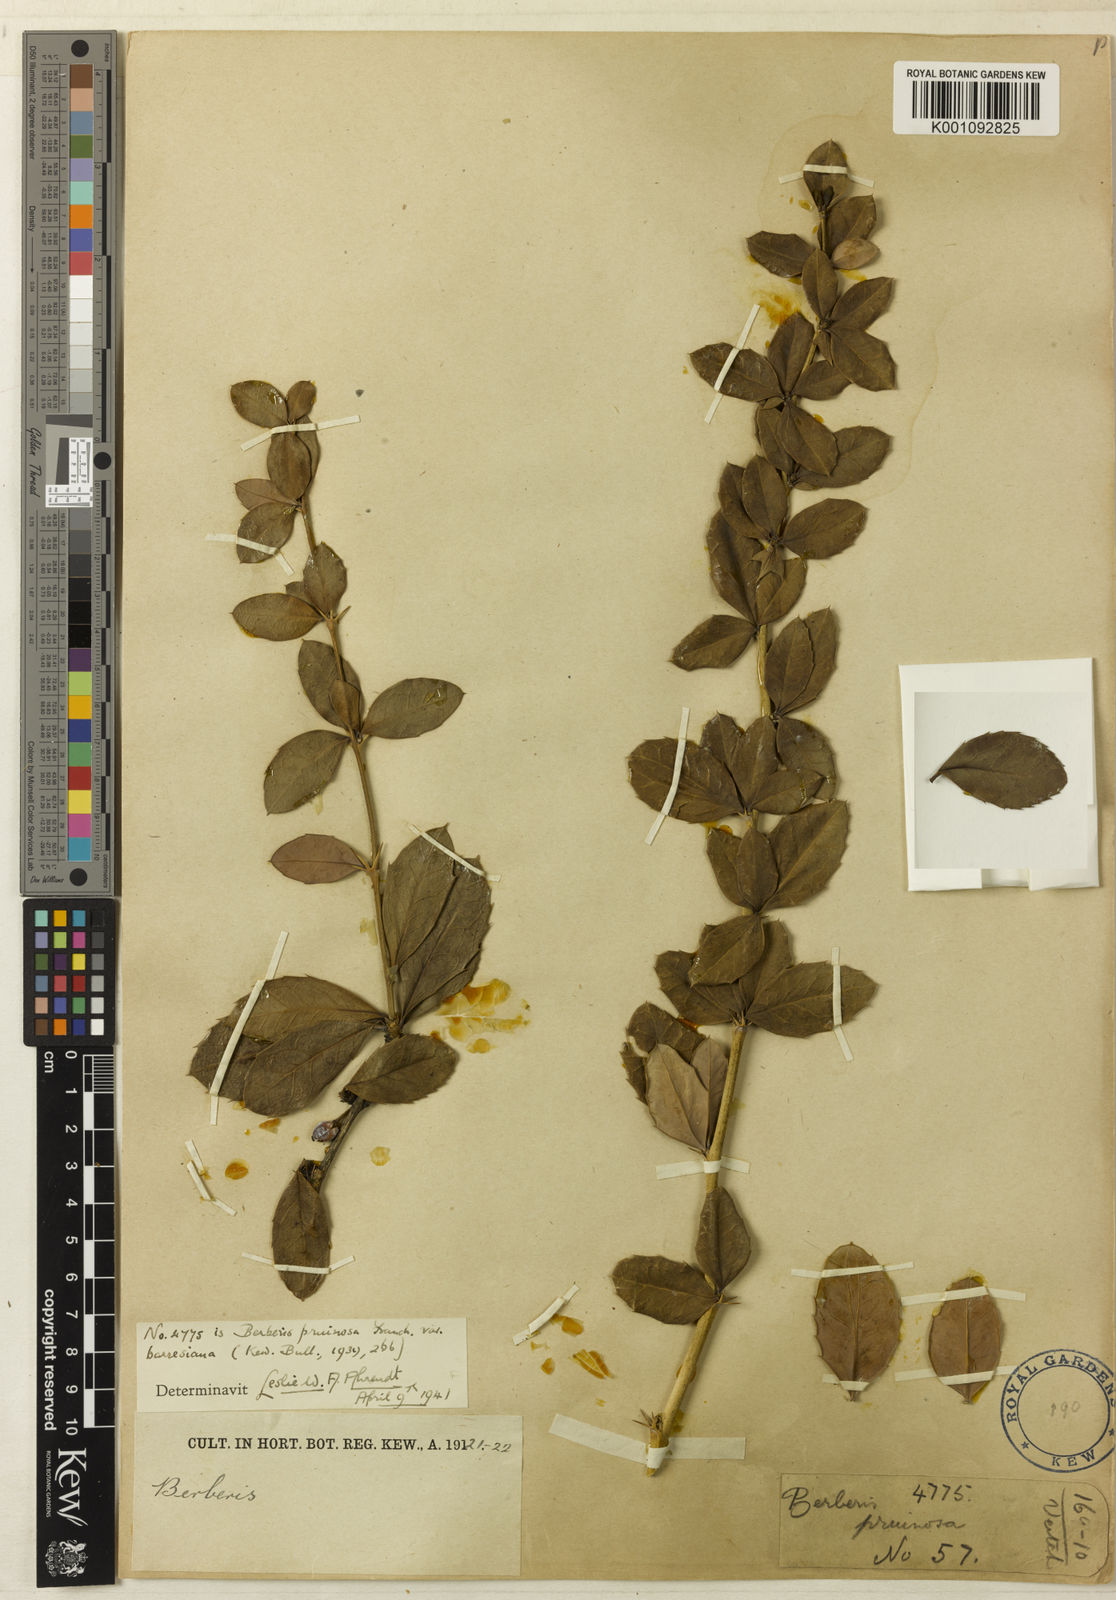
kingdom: Plantae
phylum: Tracheophyta
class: Magnoliopsida
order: Ranunculales
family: Berberidaceae
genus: Berberis
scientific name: Berberis pruinosa
